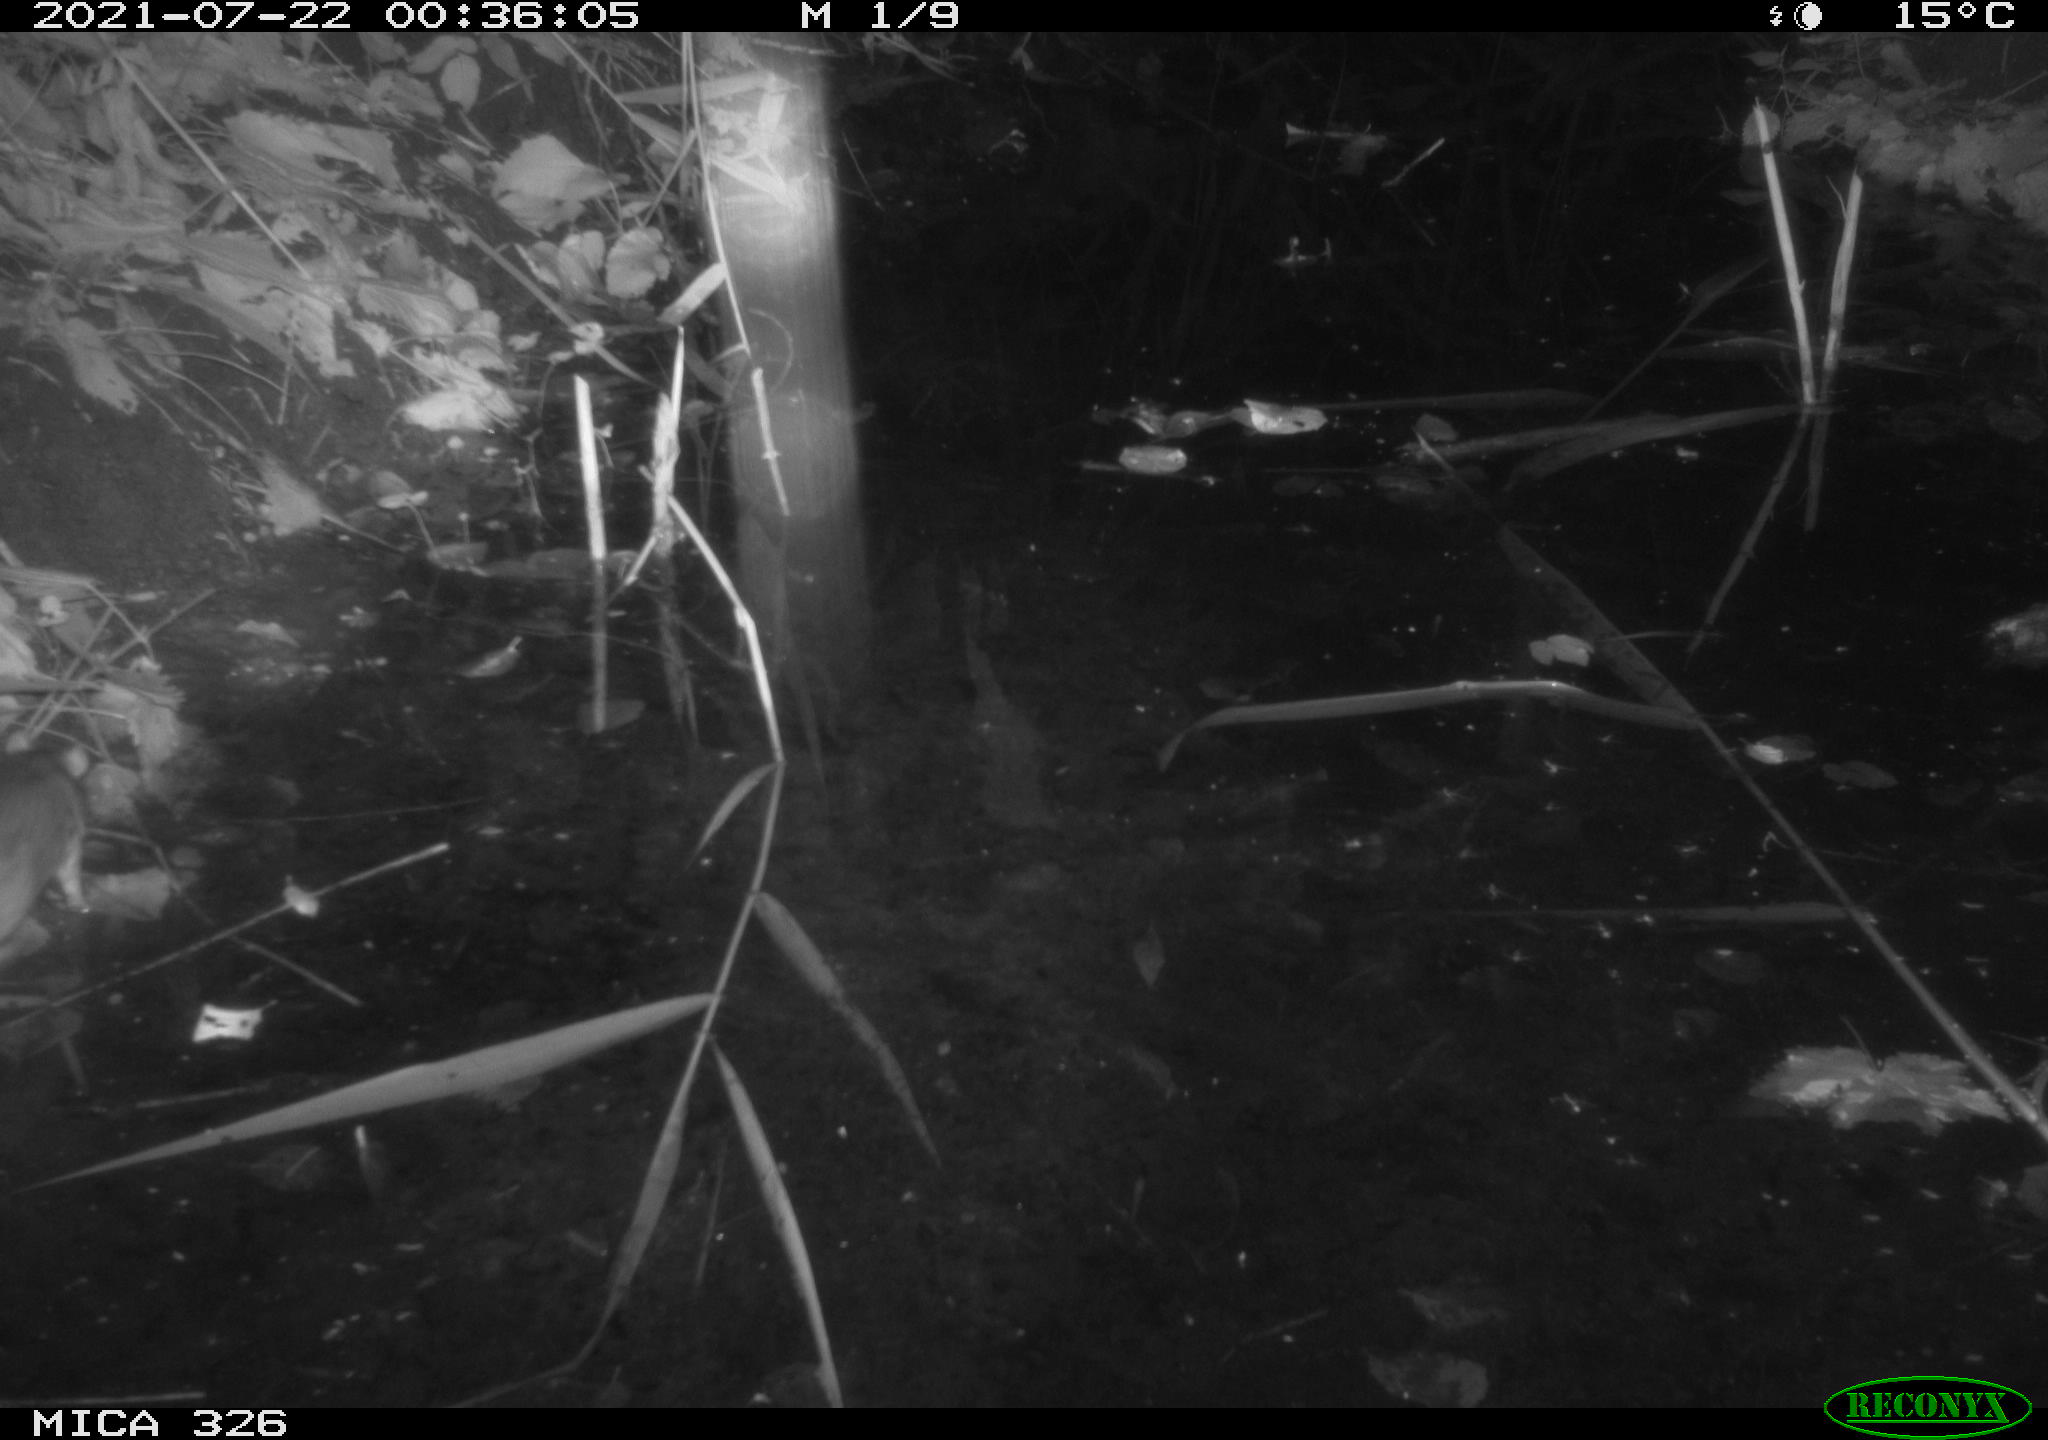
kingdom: Animalia
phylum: Chordata
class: Mammalia
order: Rodentia
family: Muridae
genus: Rattus
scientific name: Rattus norvegicus
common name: Brown rat
